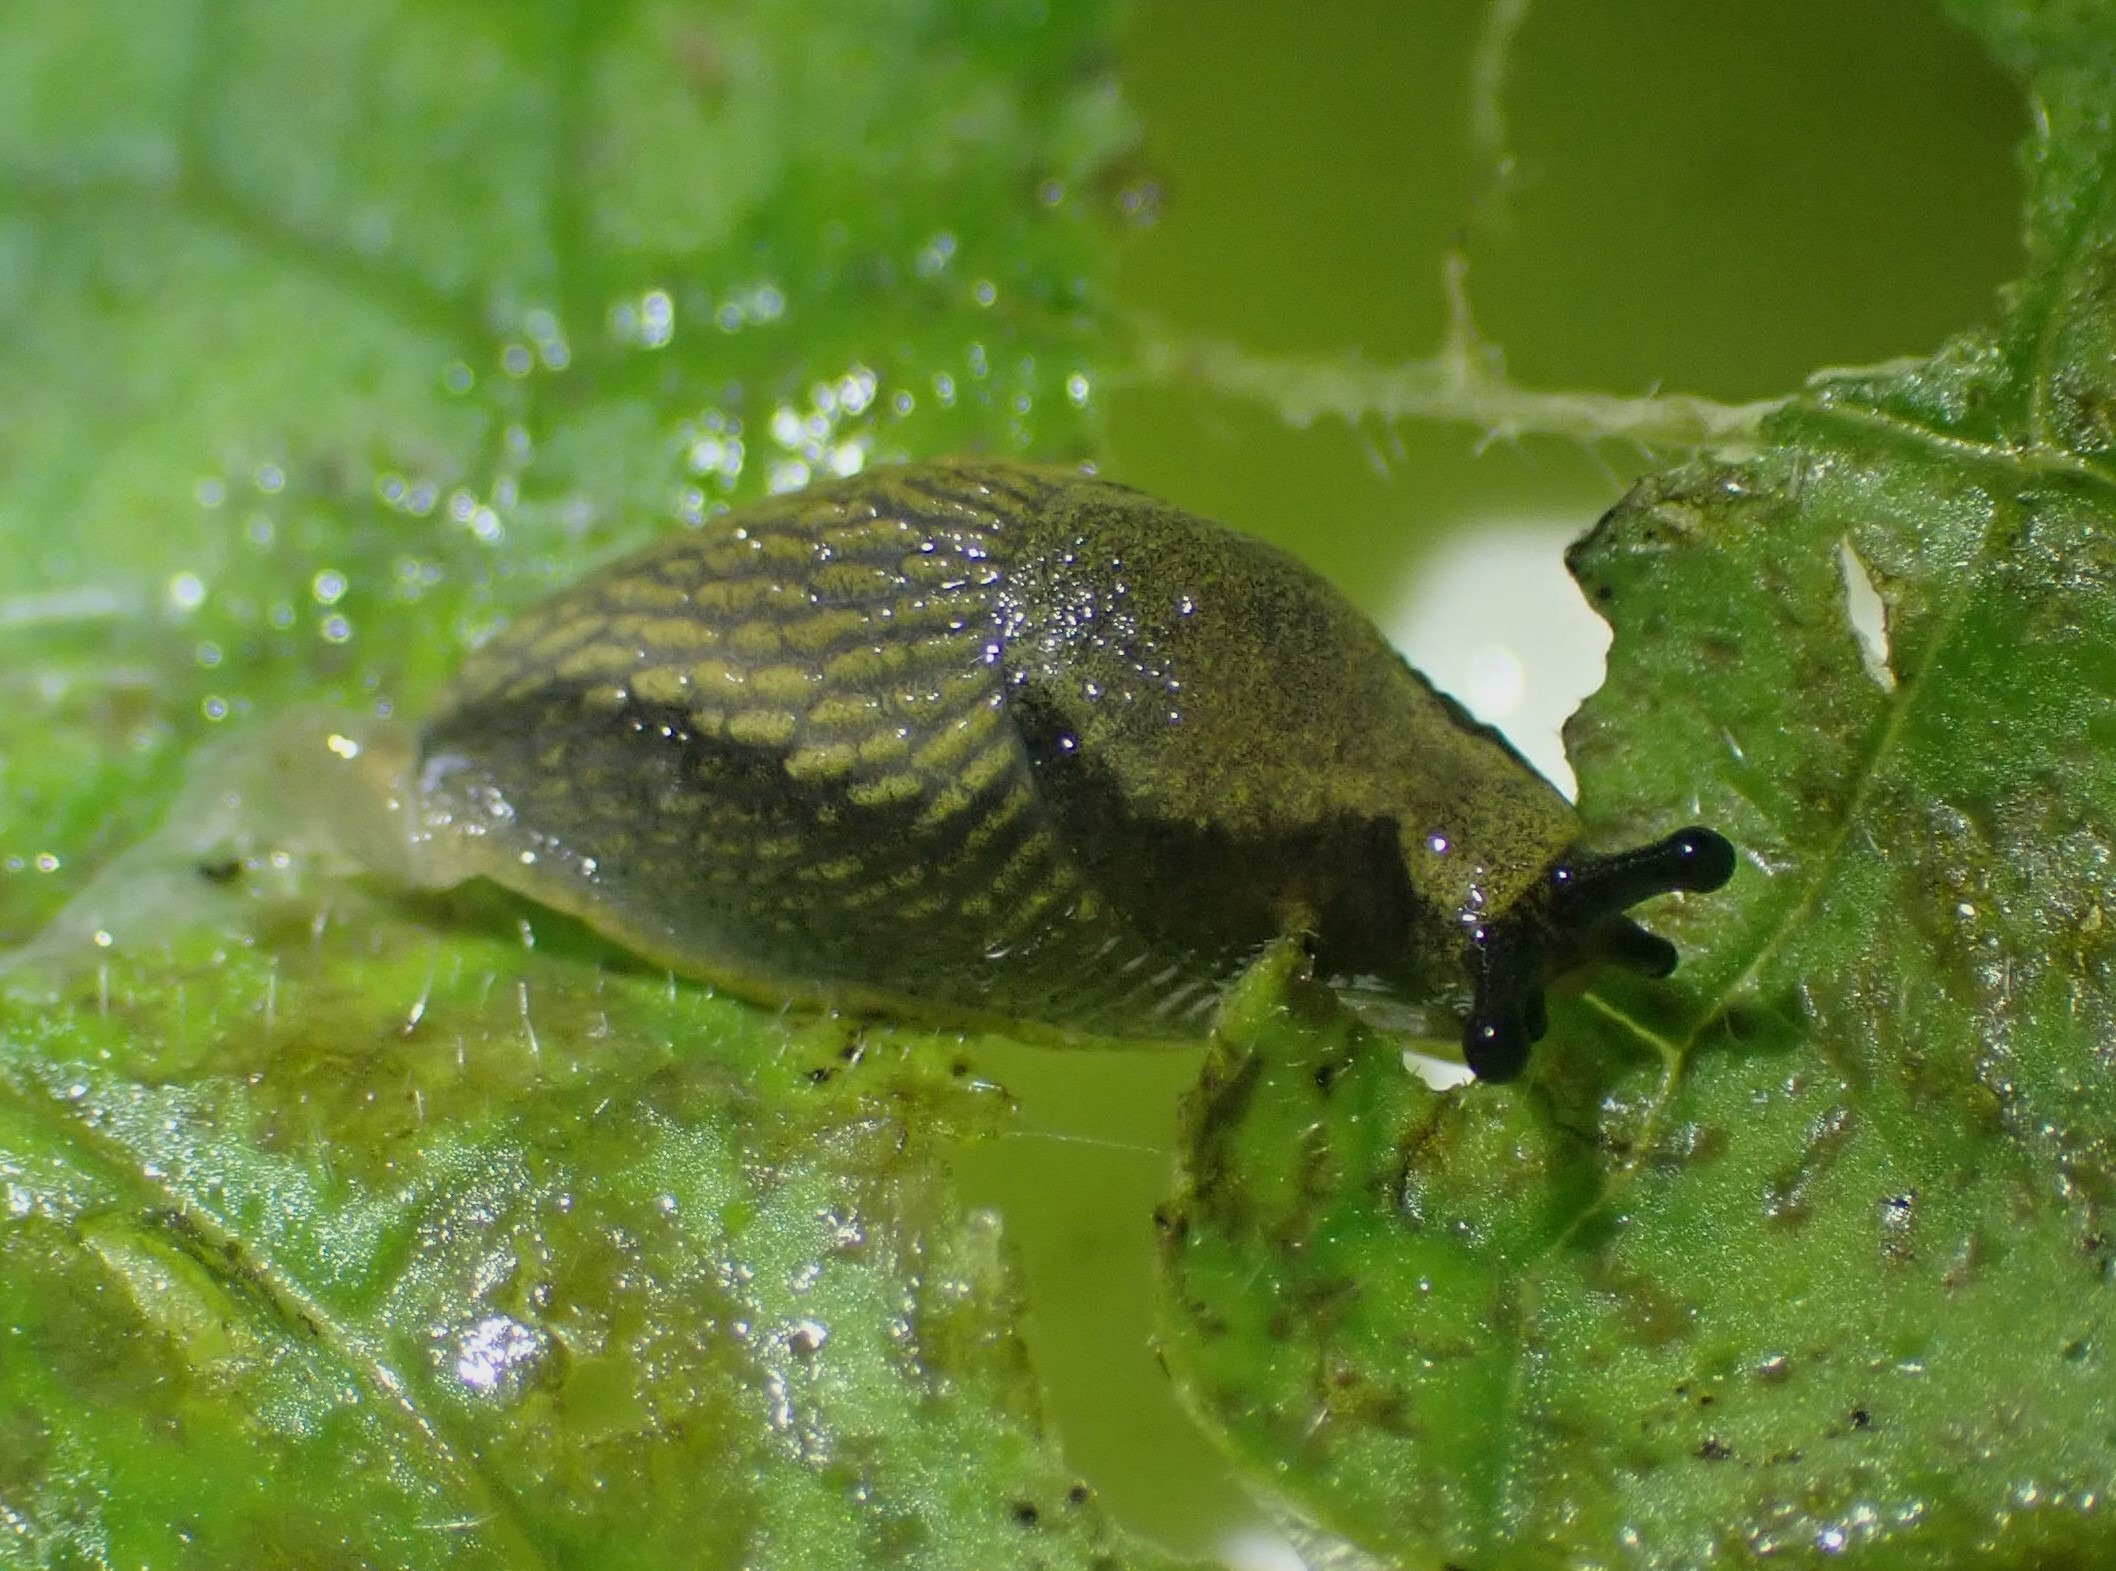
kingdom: Animalia
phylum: Mollusca
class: Gastropoda
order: Stylommatophora
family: Arionidae
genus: Arion
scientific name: Arion vulgaris
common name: Iberisk skovsnegl
